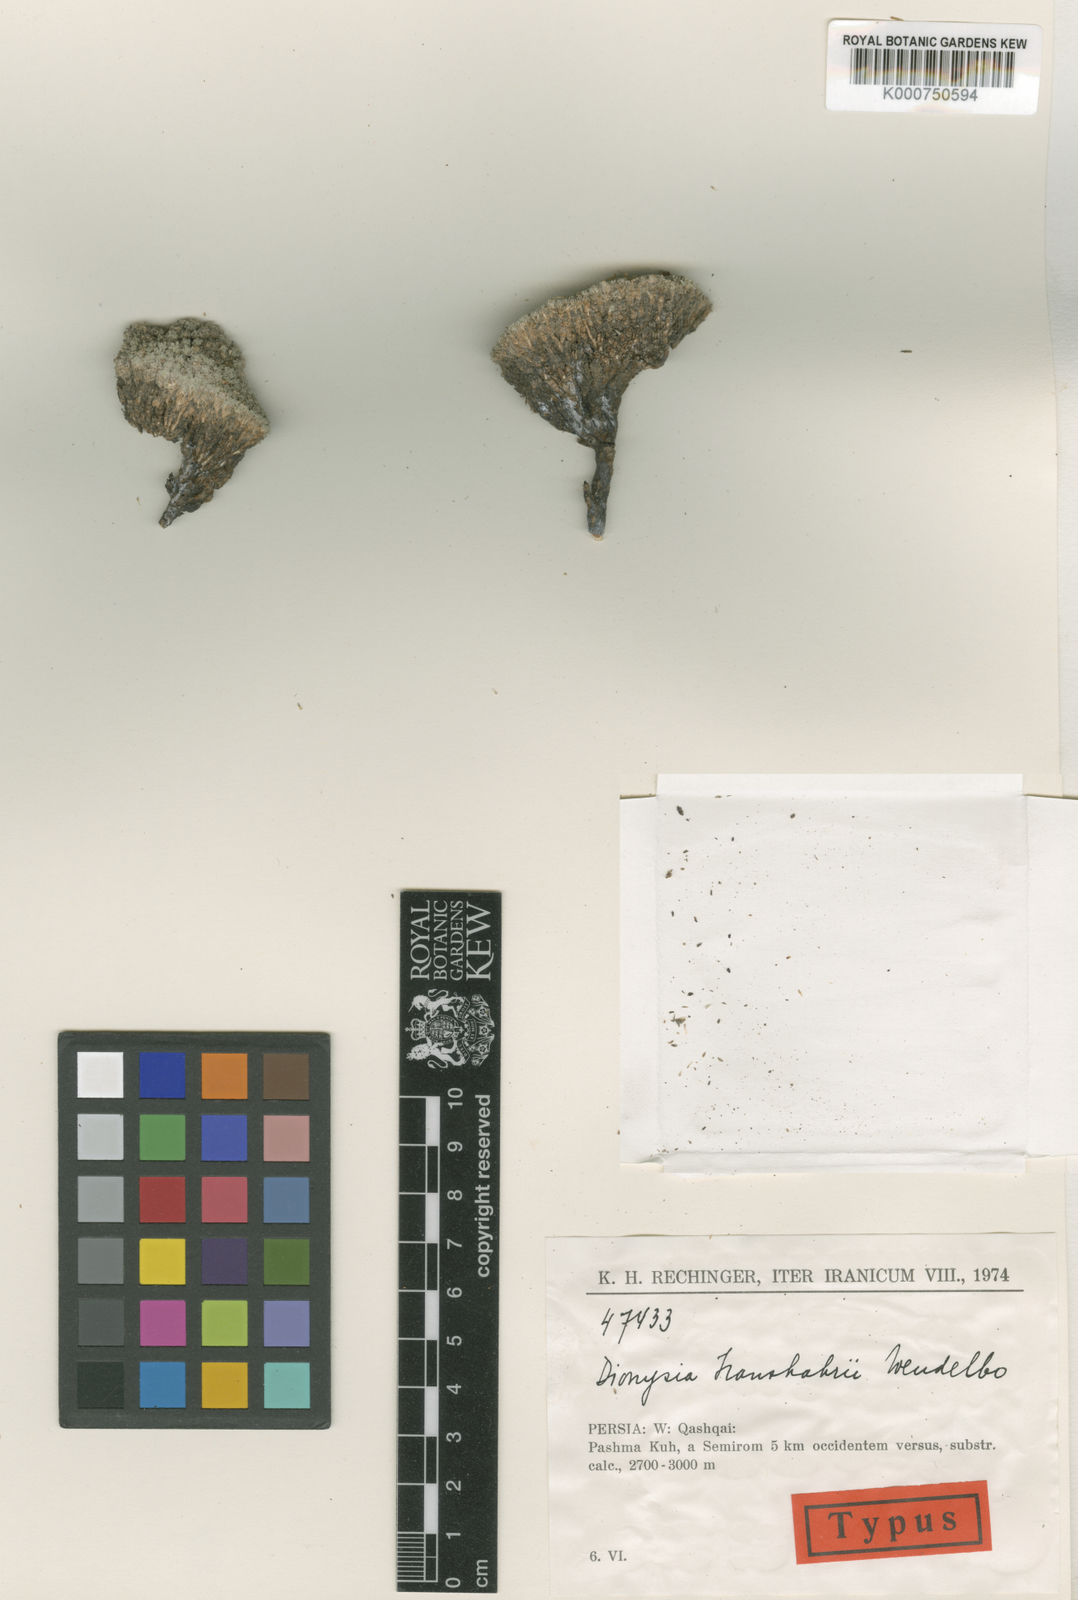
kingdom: Plantae
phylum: Tracheophyta
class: Magnoliopsida
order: Ericales
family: Primulaceae
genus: Dionysia
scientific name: Dionysia iranshahrii
